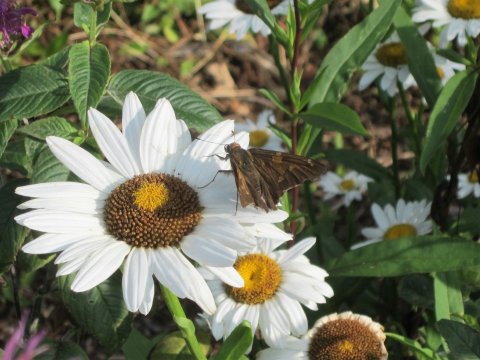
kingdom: Animalia
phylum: Arthropoda
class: Insecta
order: Lepidoptera
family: Hesperiidae
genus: Epargyreus
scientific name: Epargyreus clarus
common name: Silver-spotted Skipper
